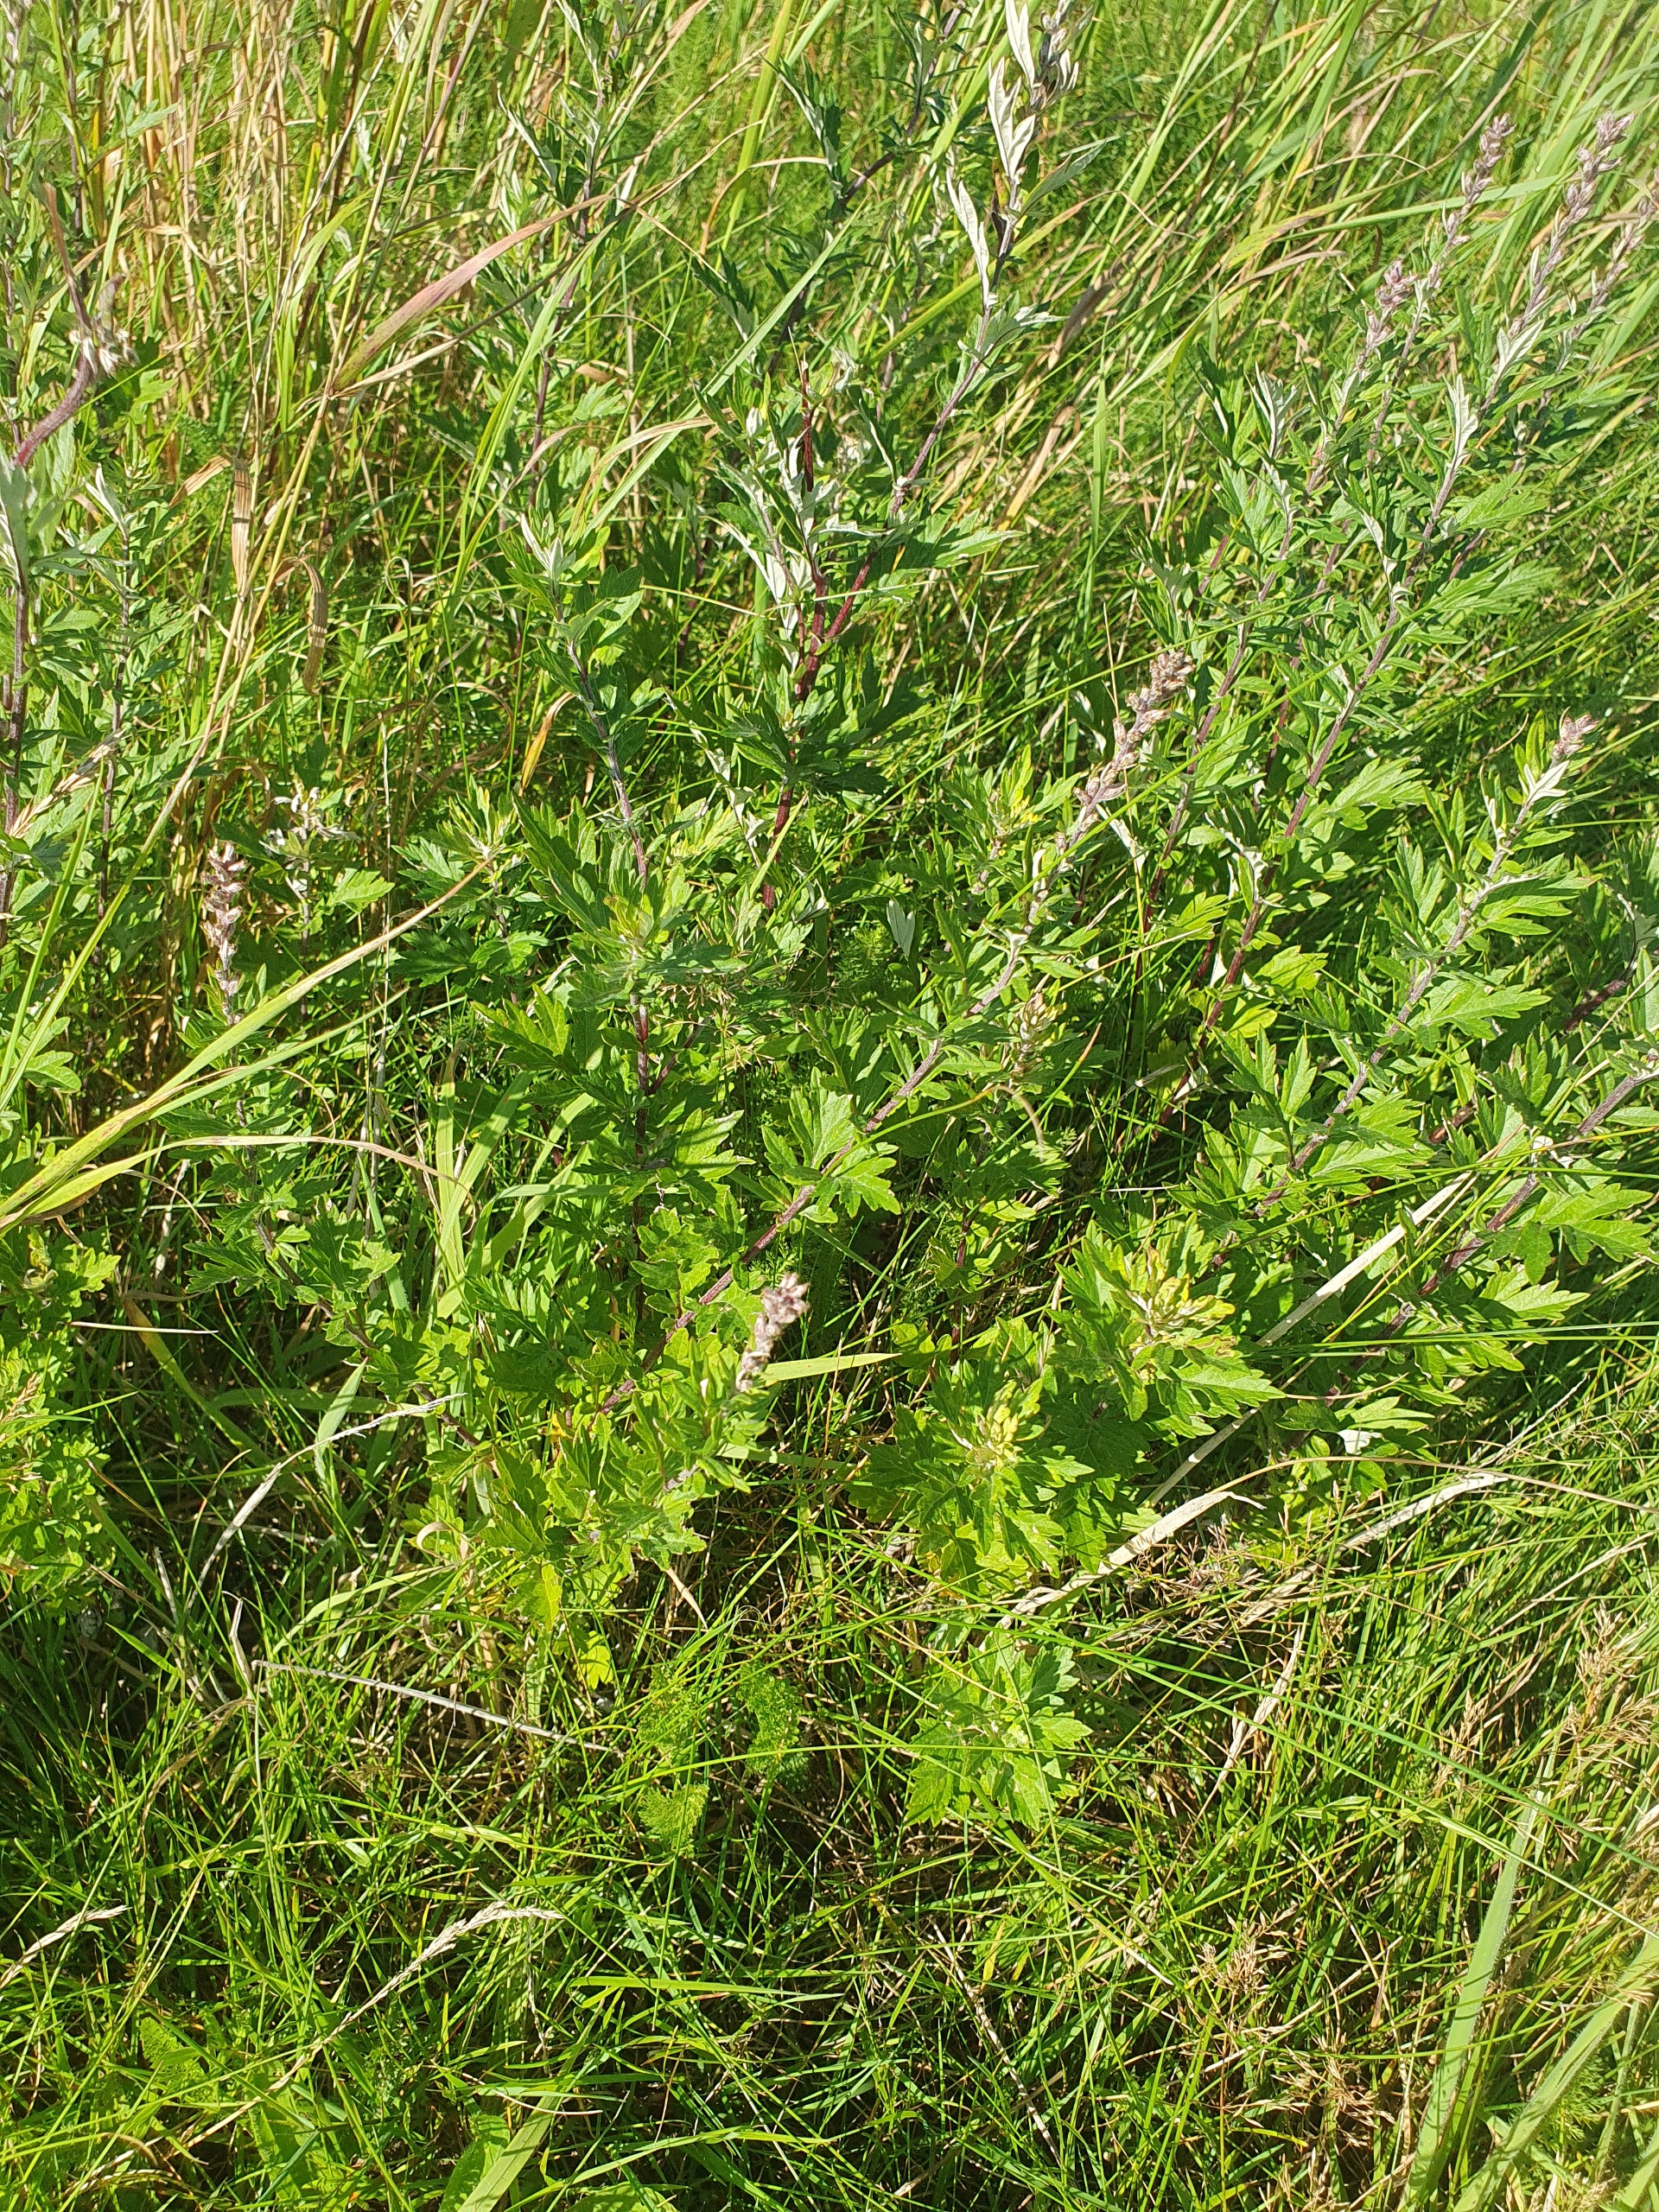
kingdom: Plantae
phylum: Tracheophyta
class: Magnoliopsida
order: Asterales
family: Asteraceae
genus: Artemisia
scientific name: Artemisia vulgaris
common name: Grå-bynke
